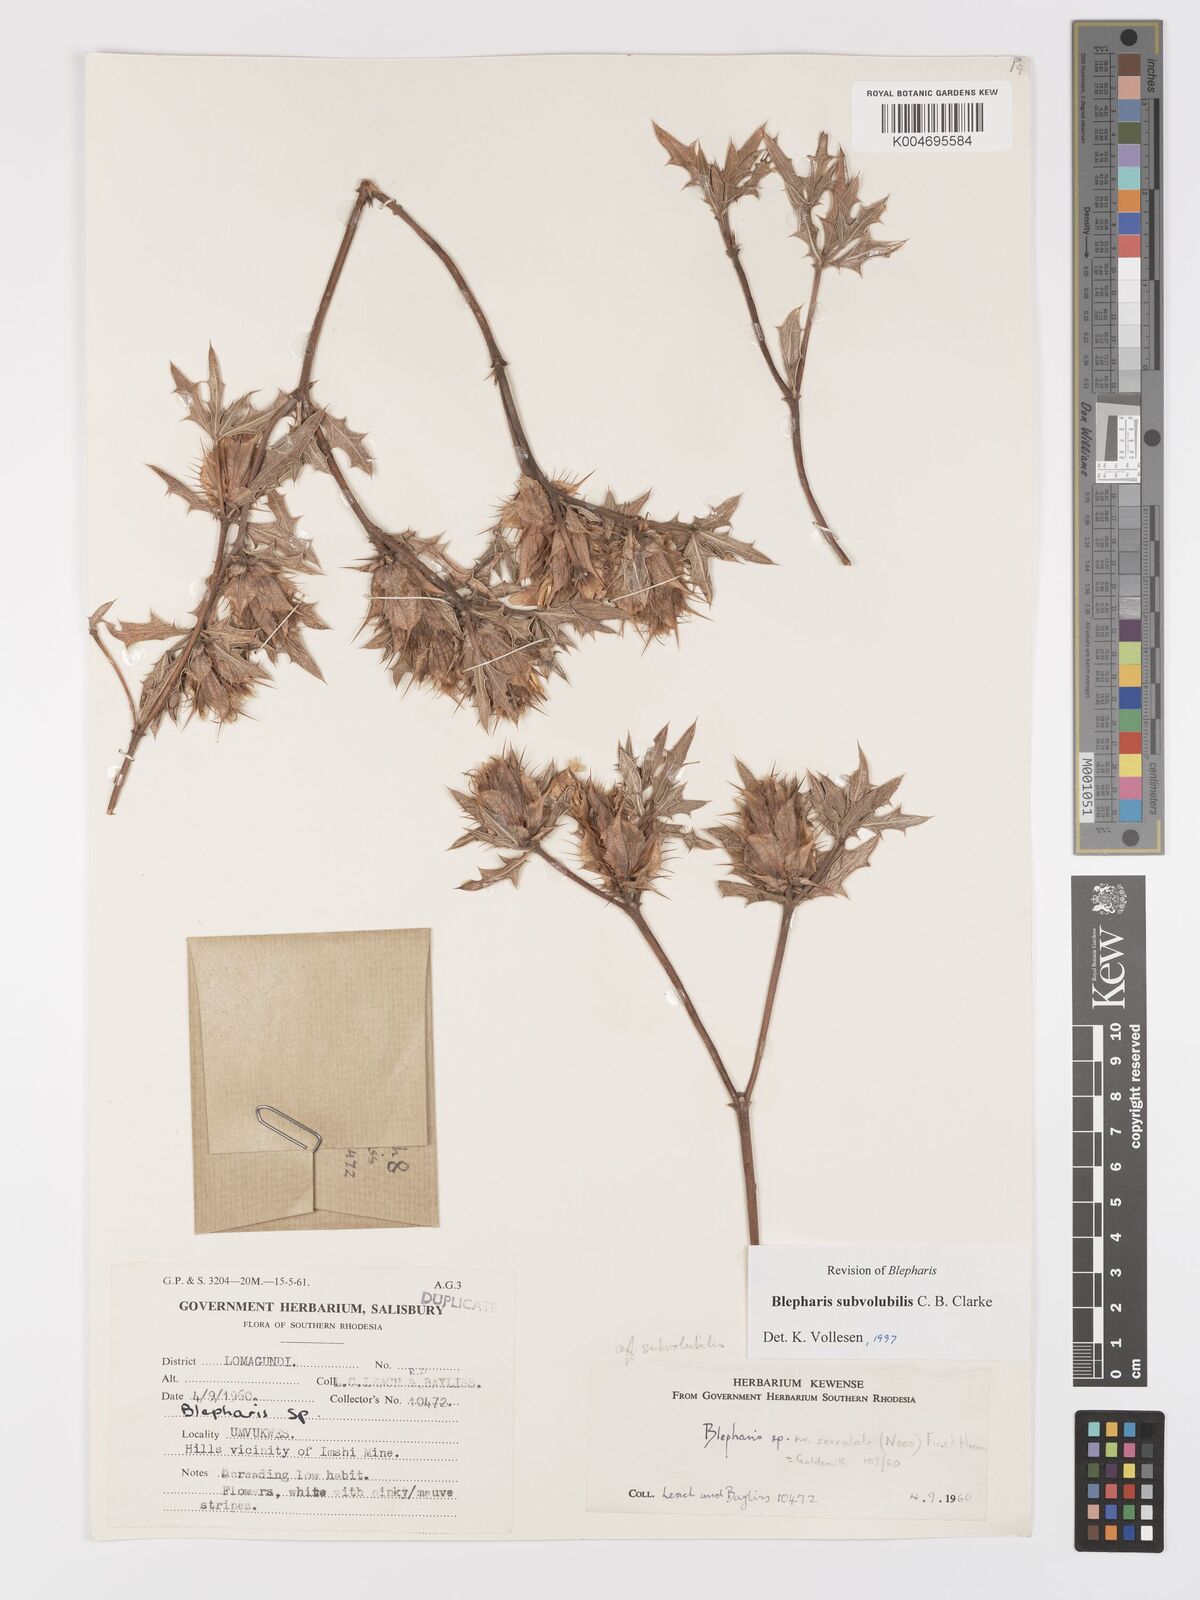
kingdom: Plantae
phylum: Tracheophyta
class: Magnoliopsida
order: Lamiales
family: Acanthaceae
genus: Blepharis
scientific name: Blepharis subvolubilis
